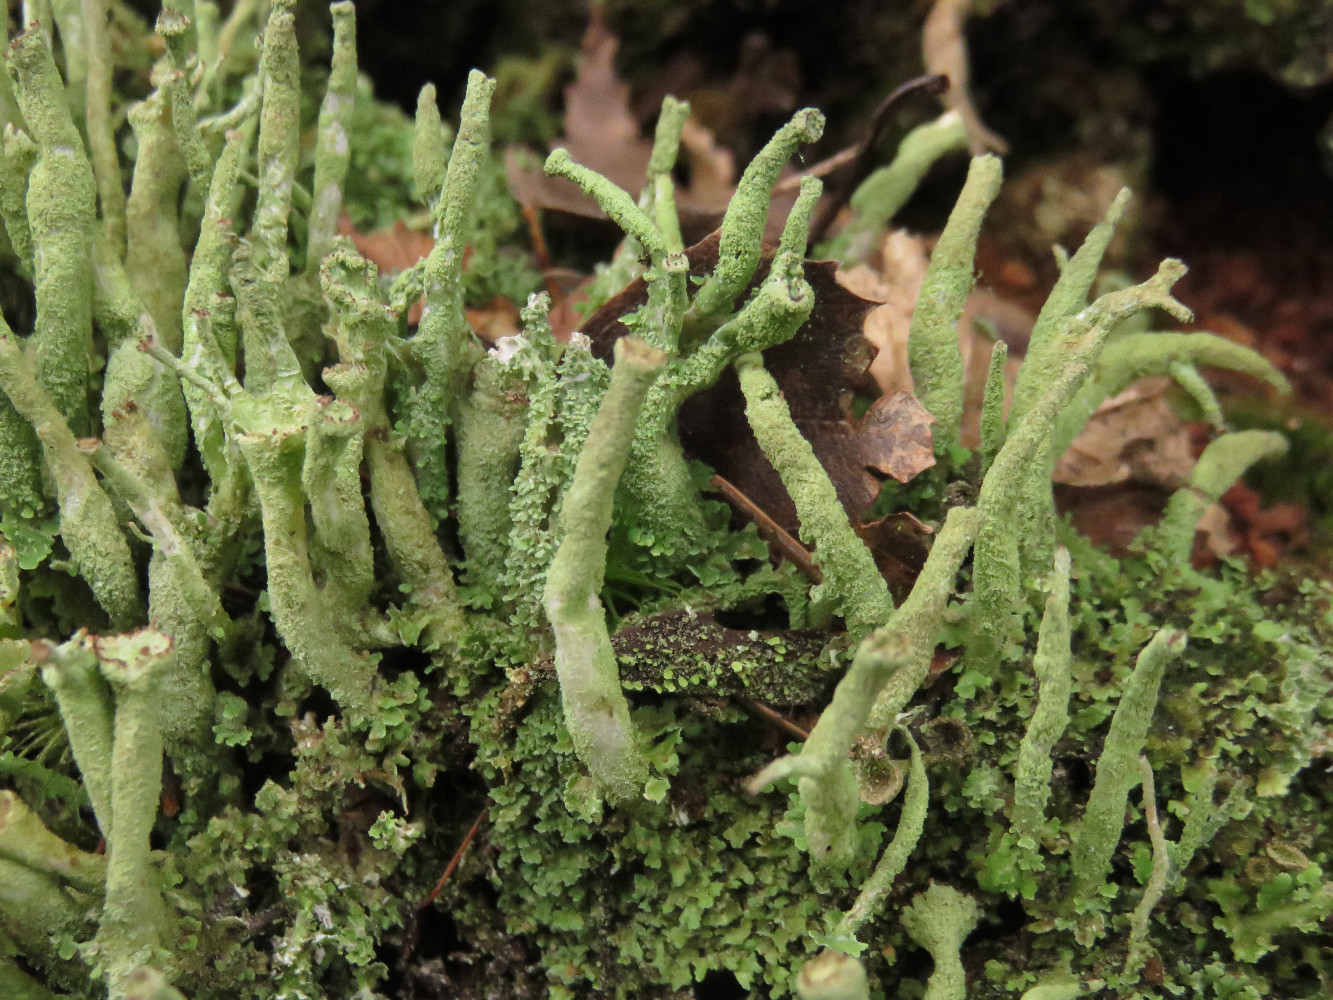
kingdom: Fungi
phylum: Ascomycota
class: Lecanoromycetes
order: Lecanorales
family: Cladoniaceae
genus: Cladonia
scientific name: Cladonia ochrochlora
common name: stød-bægerlav
